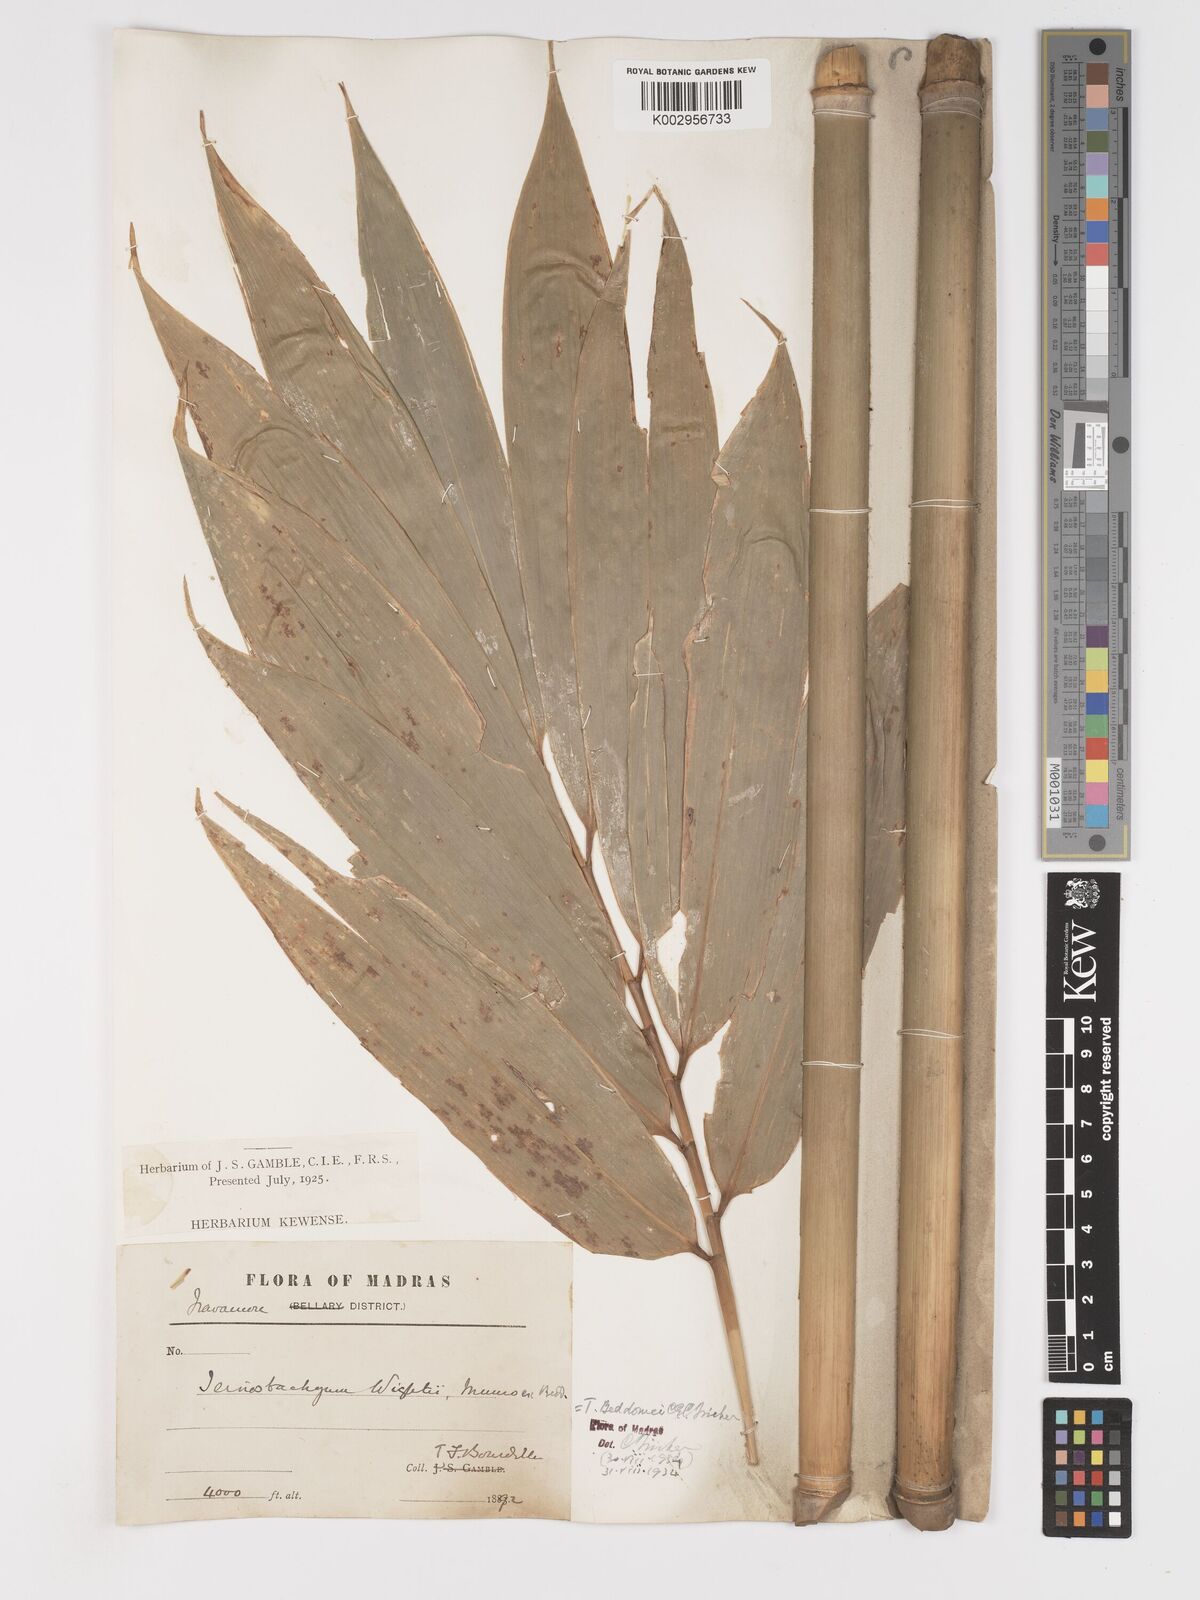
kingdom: Plantae
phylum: Tracheophyta
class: Liliopsida
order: Poales
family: Poaceae
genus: Schizostachyum
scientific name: Schizostachyum beddomei
